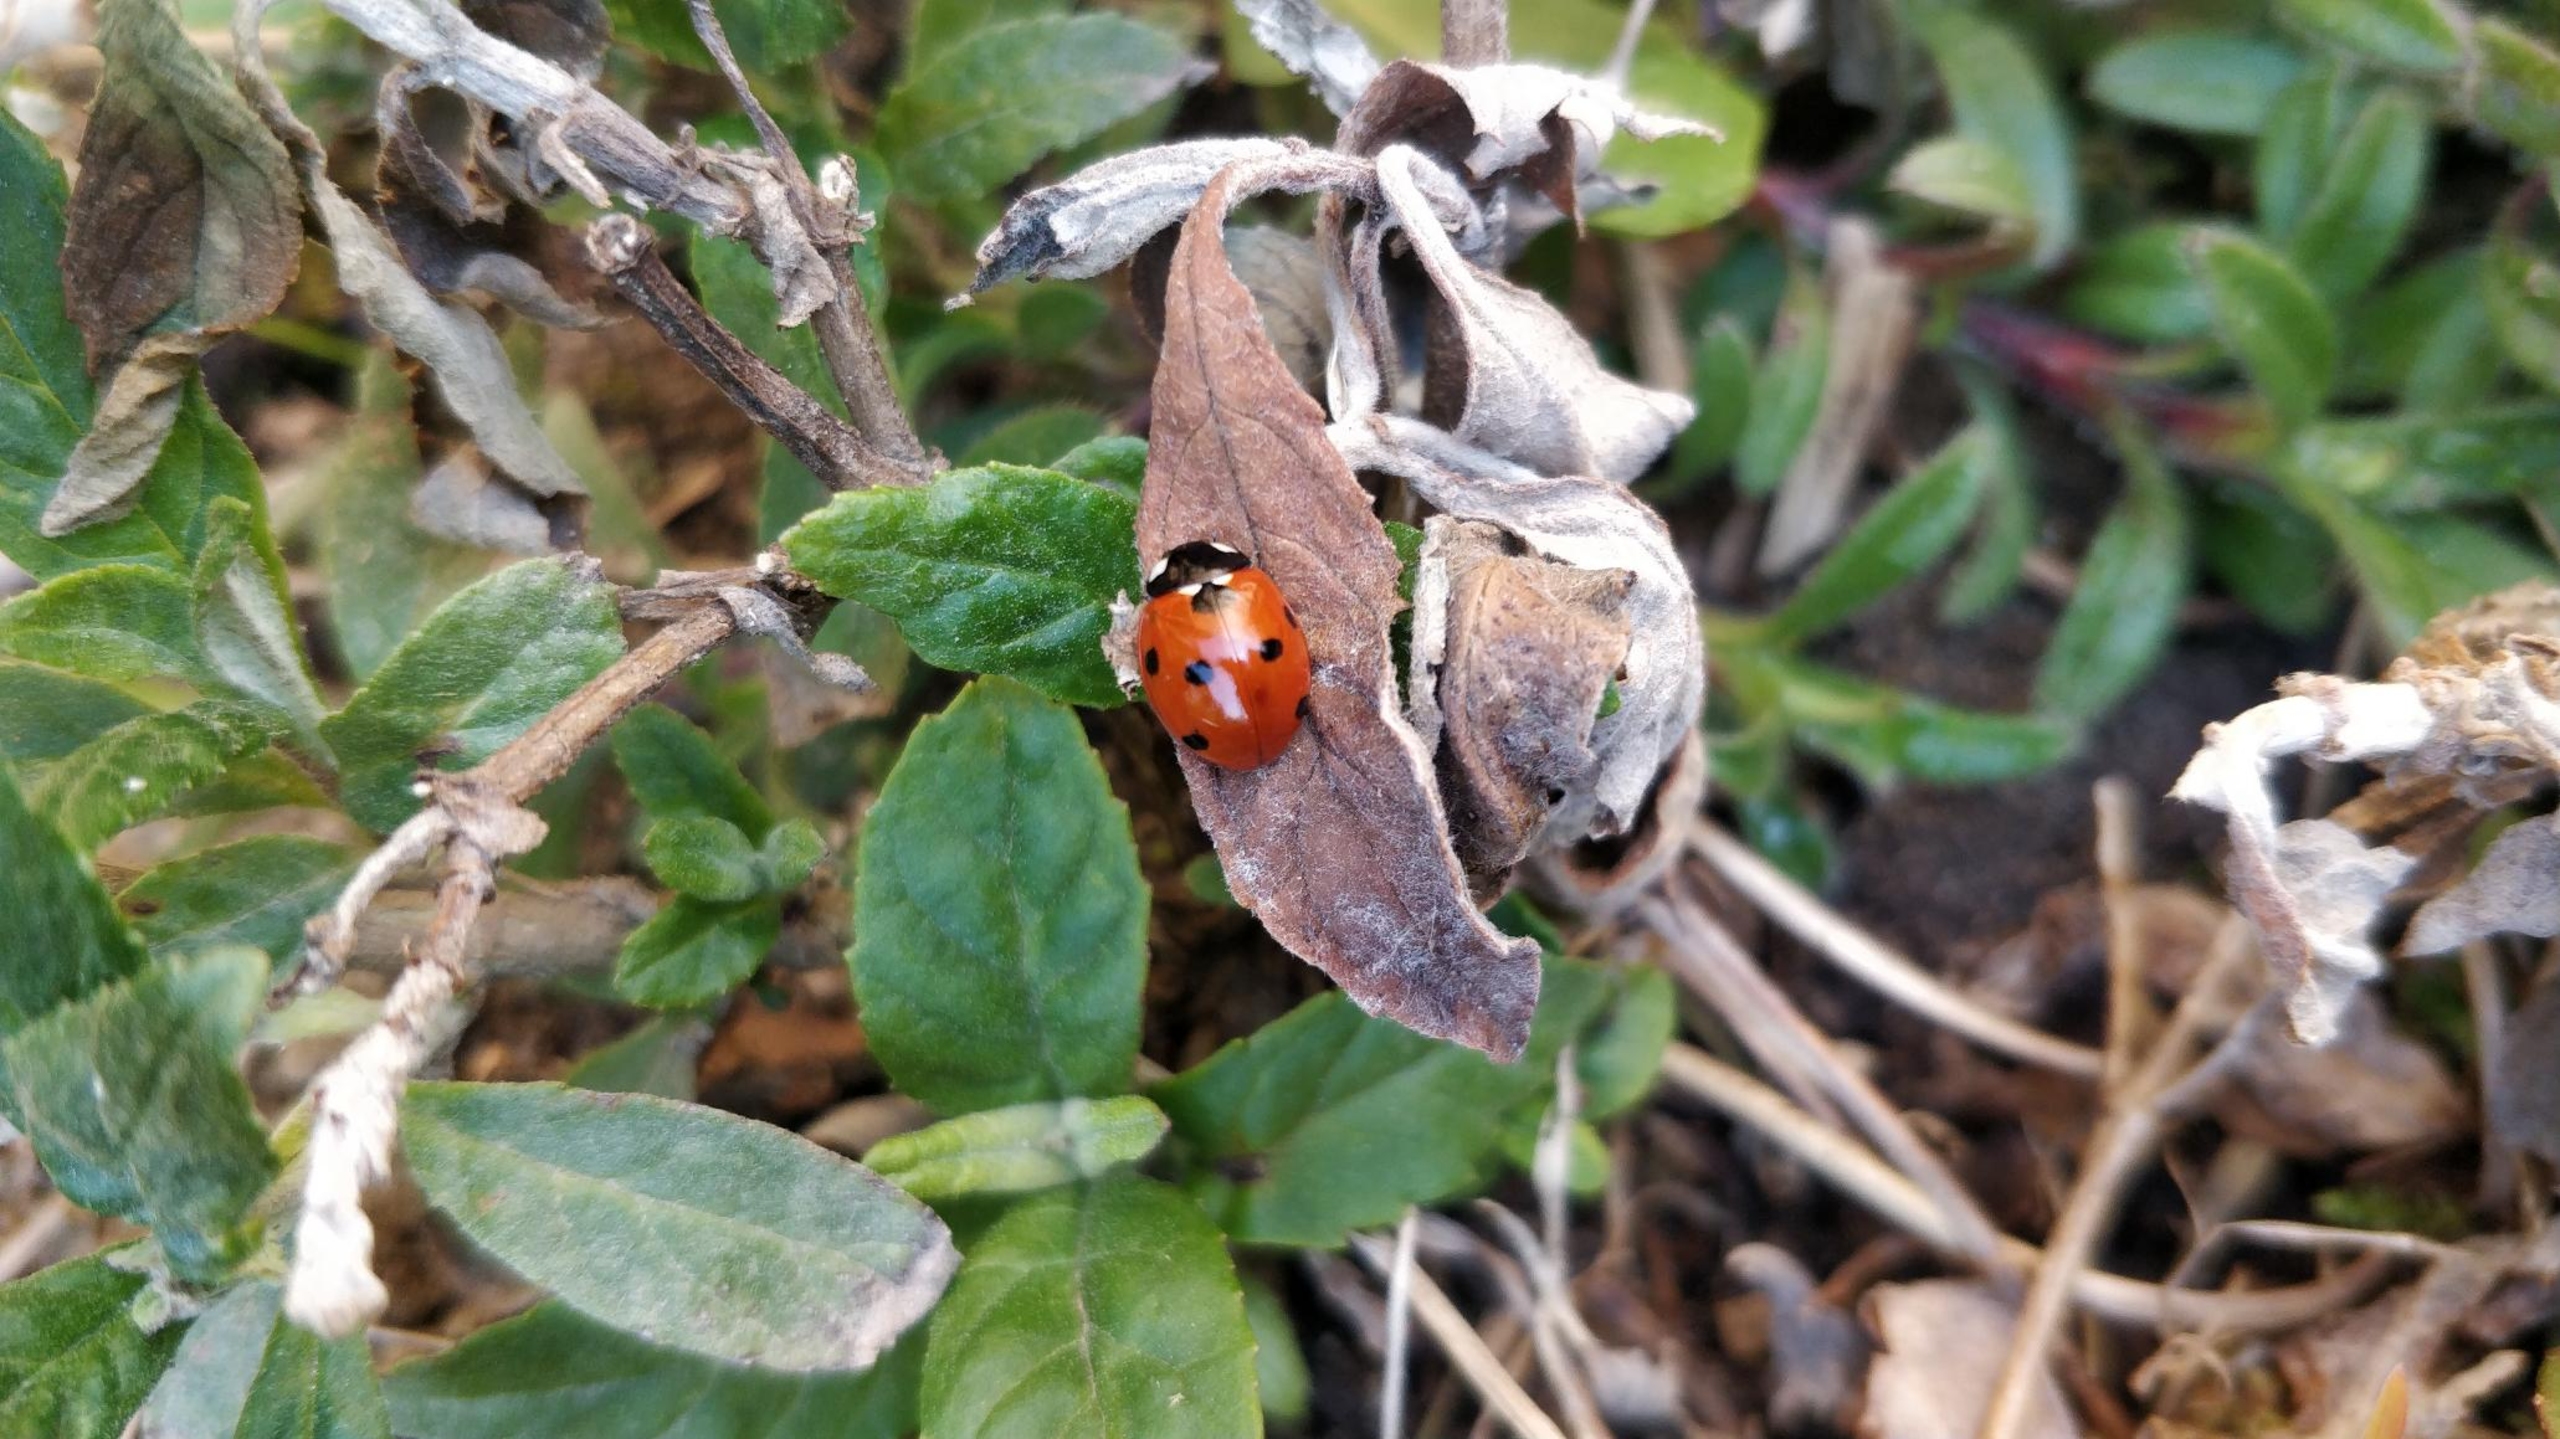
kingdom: Animalia
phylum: Arthropoda
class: Insecta
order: Coleoptera
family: Coccinellidae
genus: Coccinella
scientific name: Coccinella septempunctata
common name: Syvplettet mariehøne
